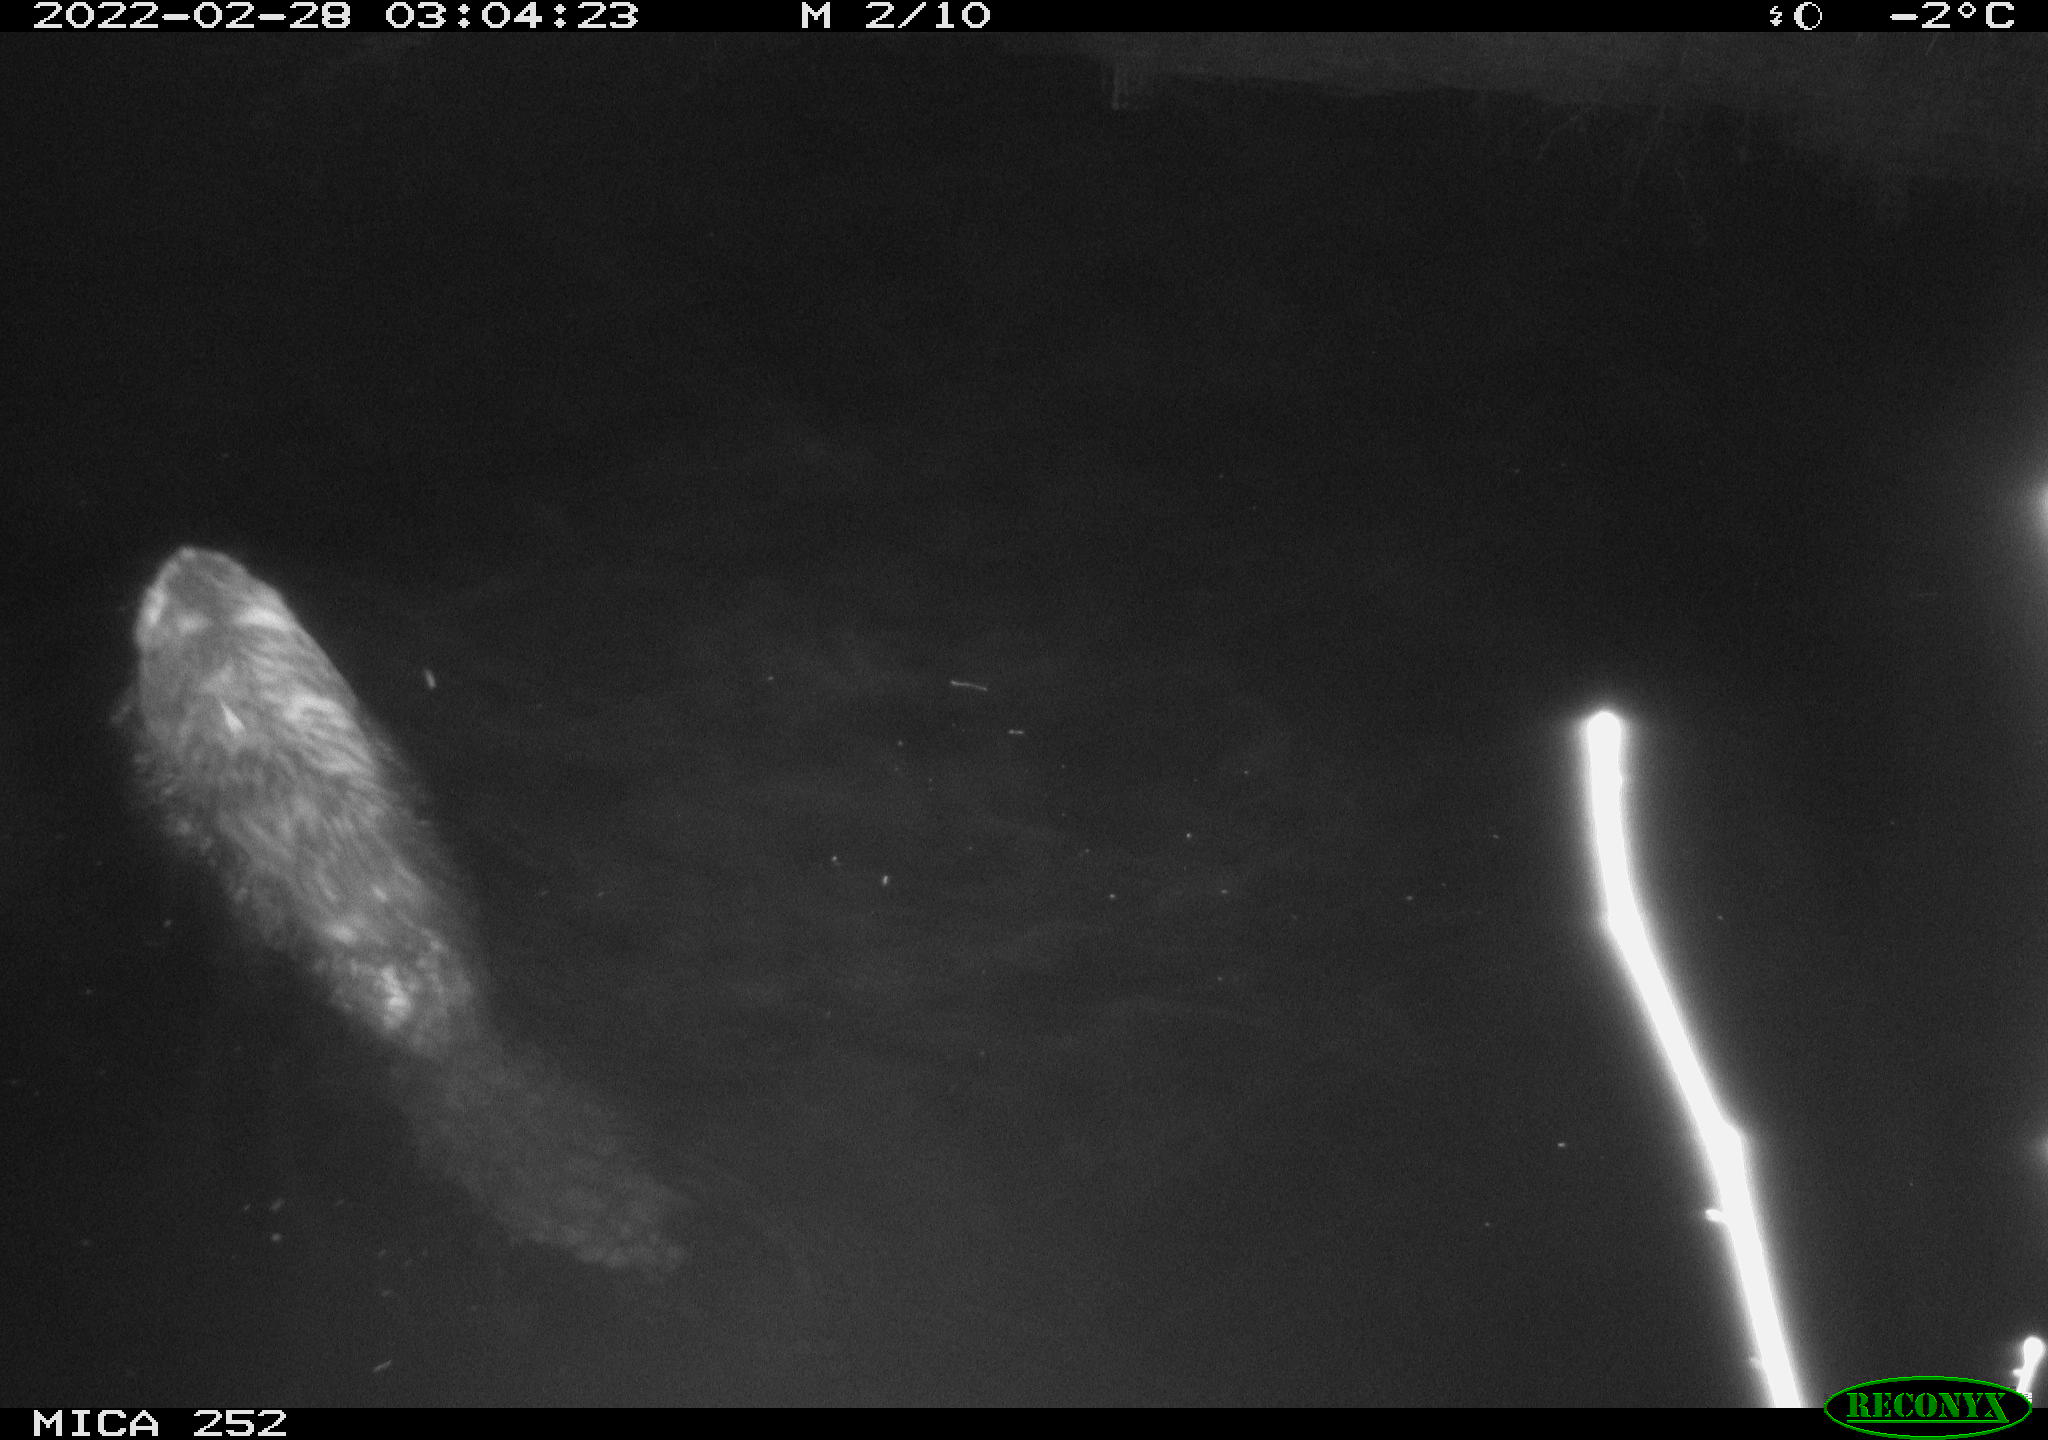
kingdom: Animalia
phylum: Chordata
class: Mammalia
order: Rodentia
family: Castoridae
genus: Castor
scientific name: Castor fiber
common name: Eurasian beaver
